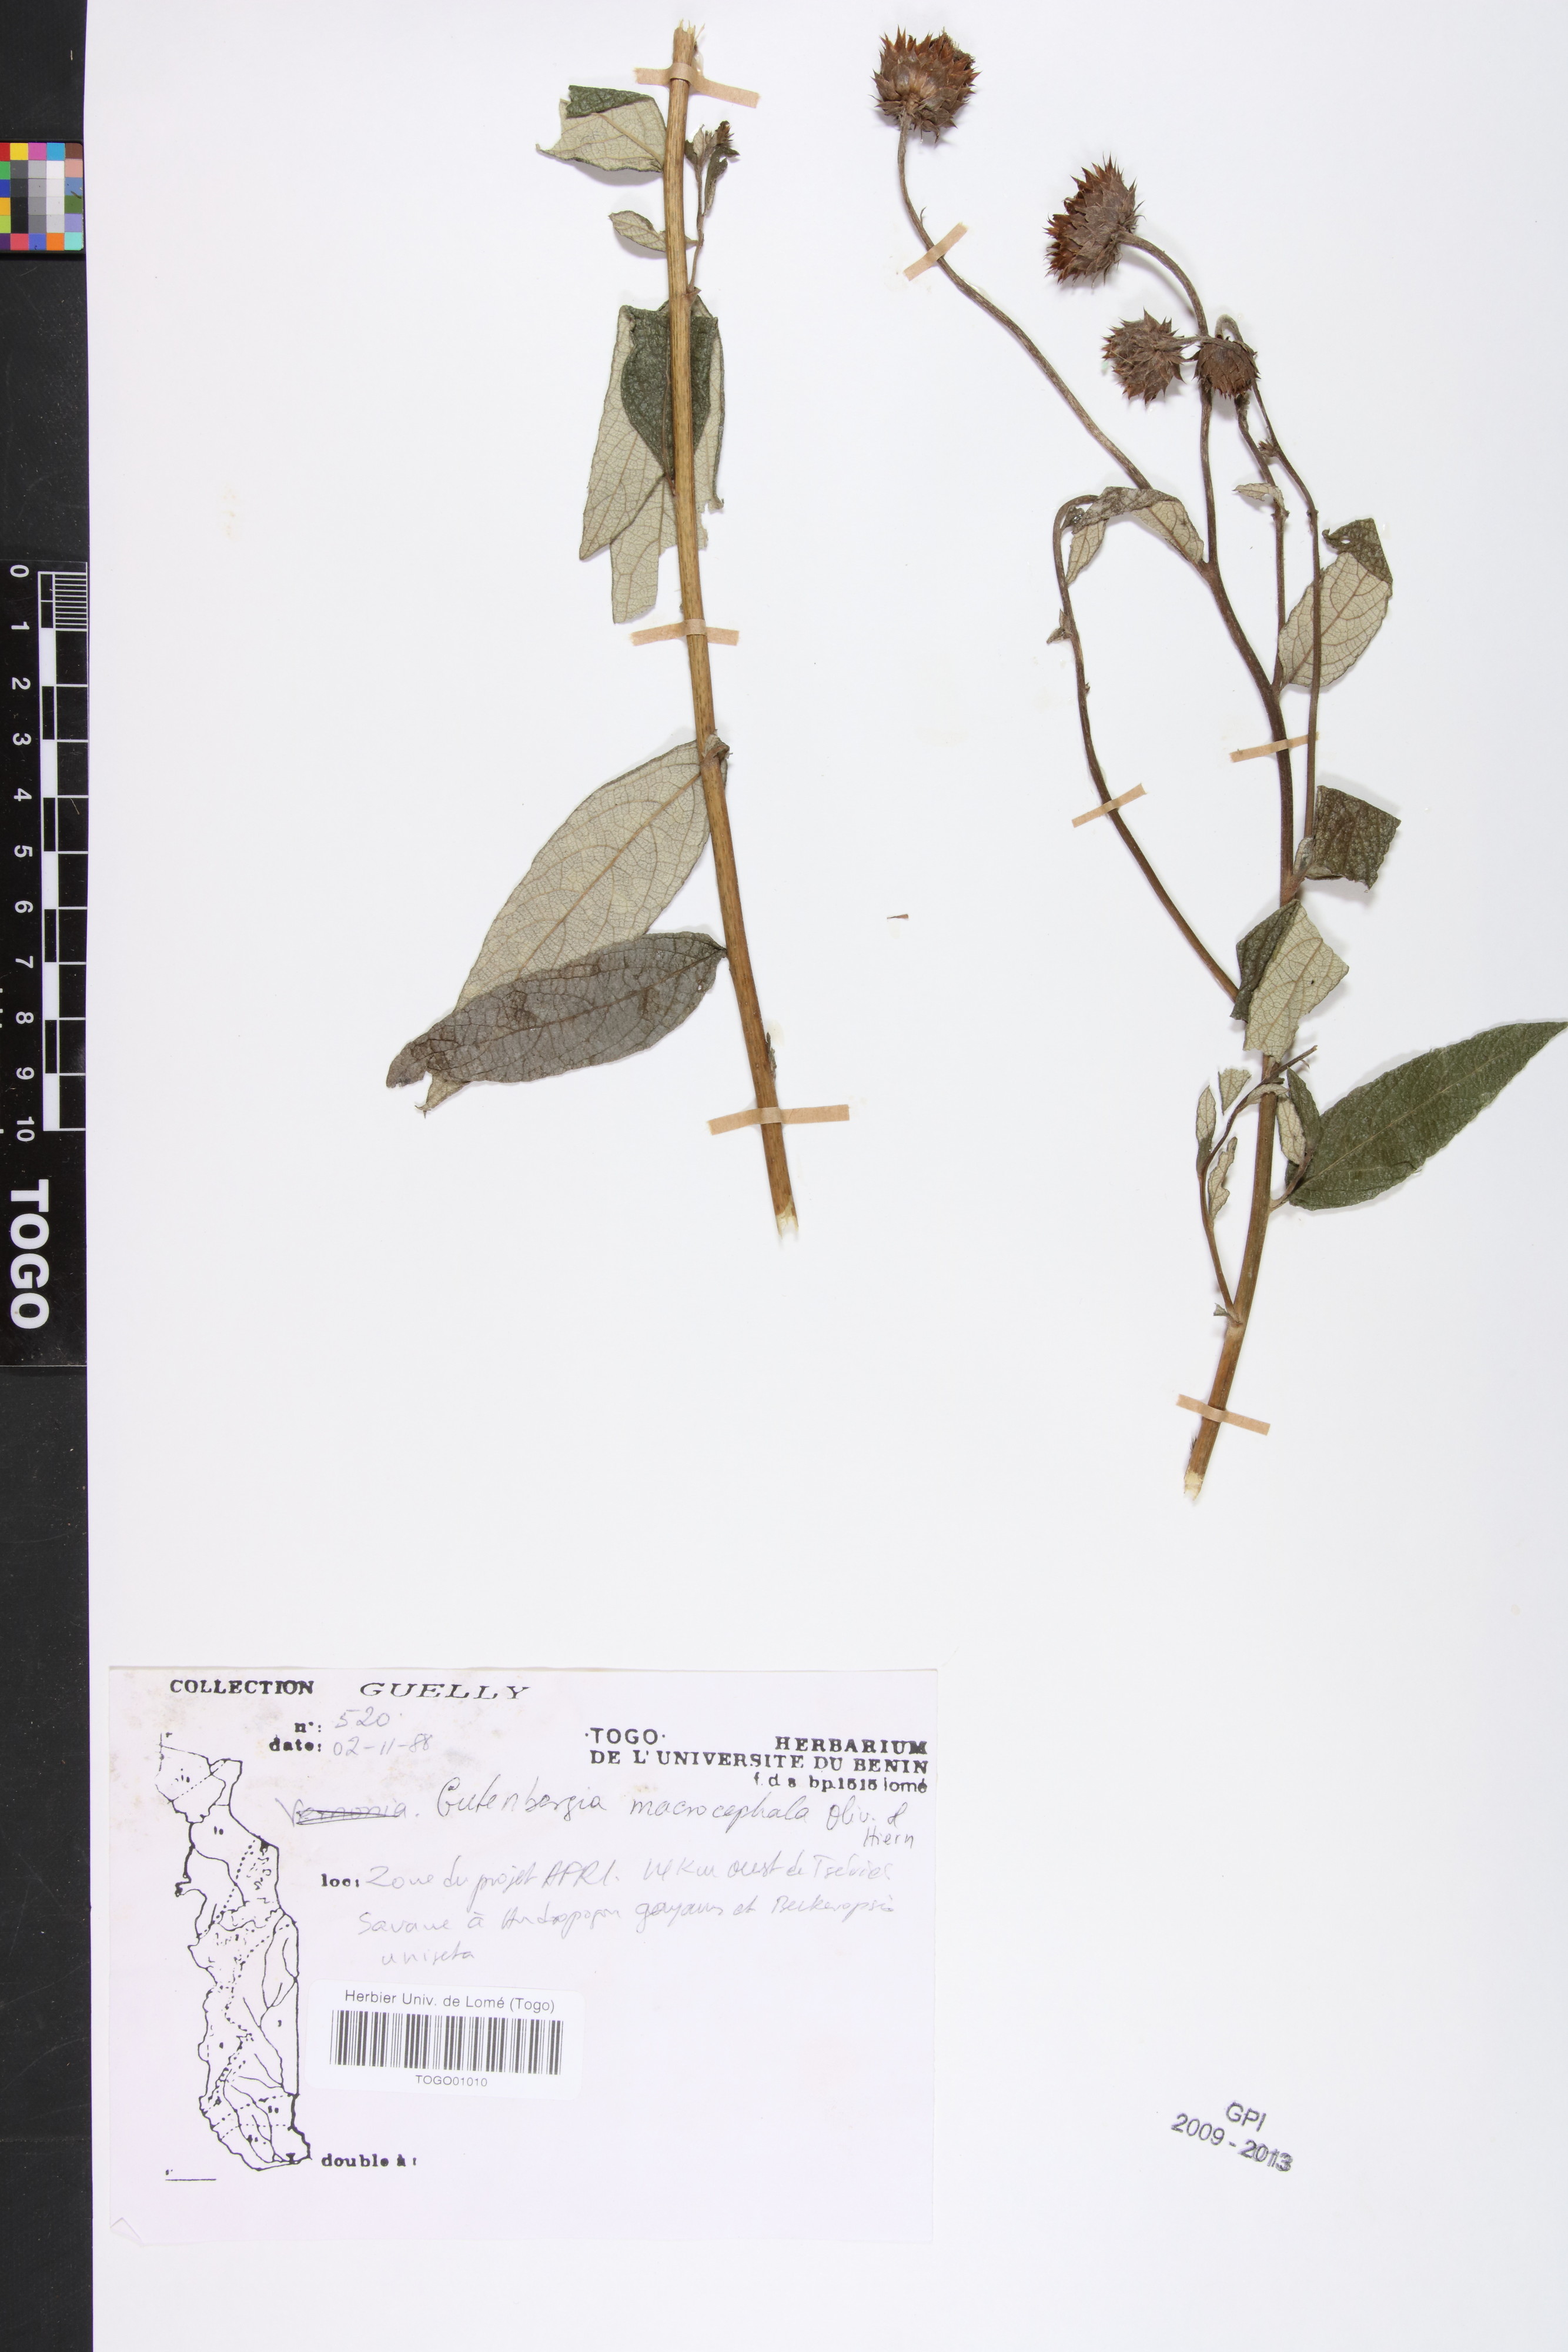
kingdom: Plantae
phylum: Tracheophyta
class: Magnoliopsida
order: Asterales
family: Asteraceae
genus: Kinghamia
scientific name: Kinghamia macrocephala
